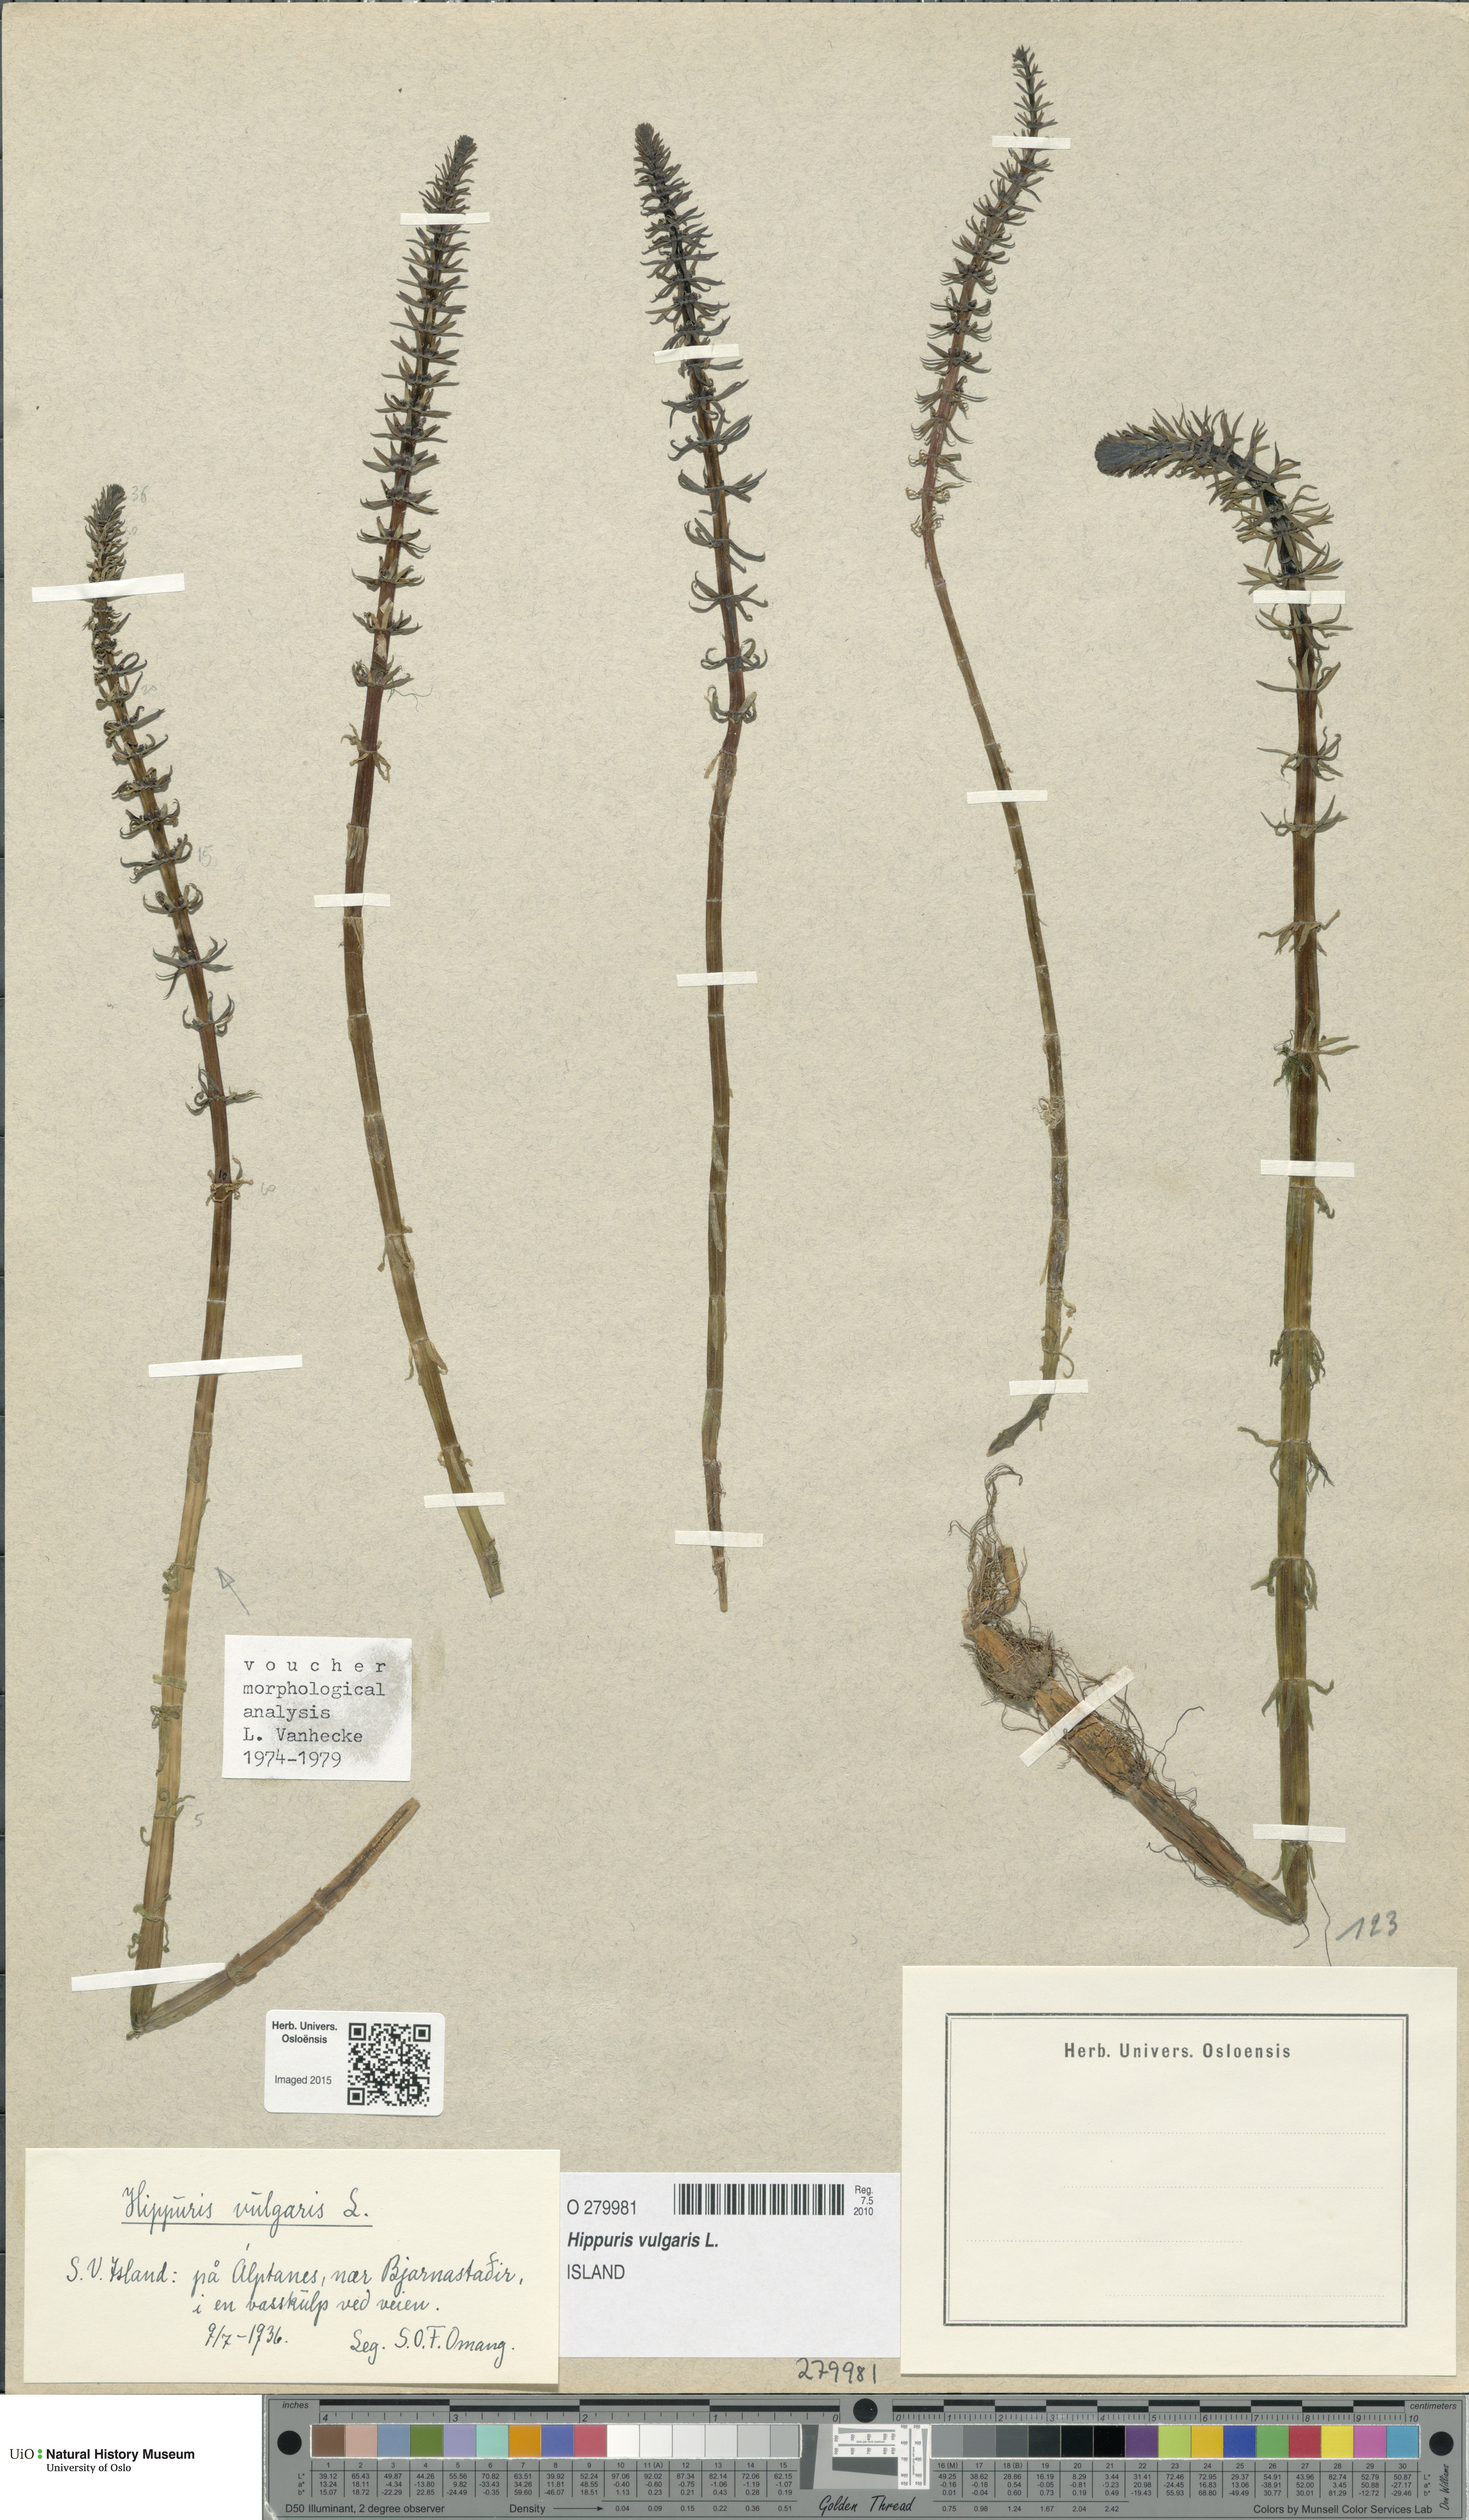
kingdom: Plantae
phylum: Tracheophyta
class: Magnoliopsida
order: Lamiales
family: Plantaginaceae
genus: Hippuris
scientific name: Hippuris vulgaris
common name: Mare's-tail
